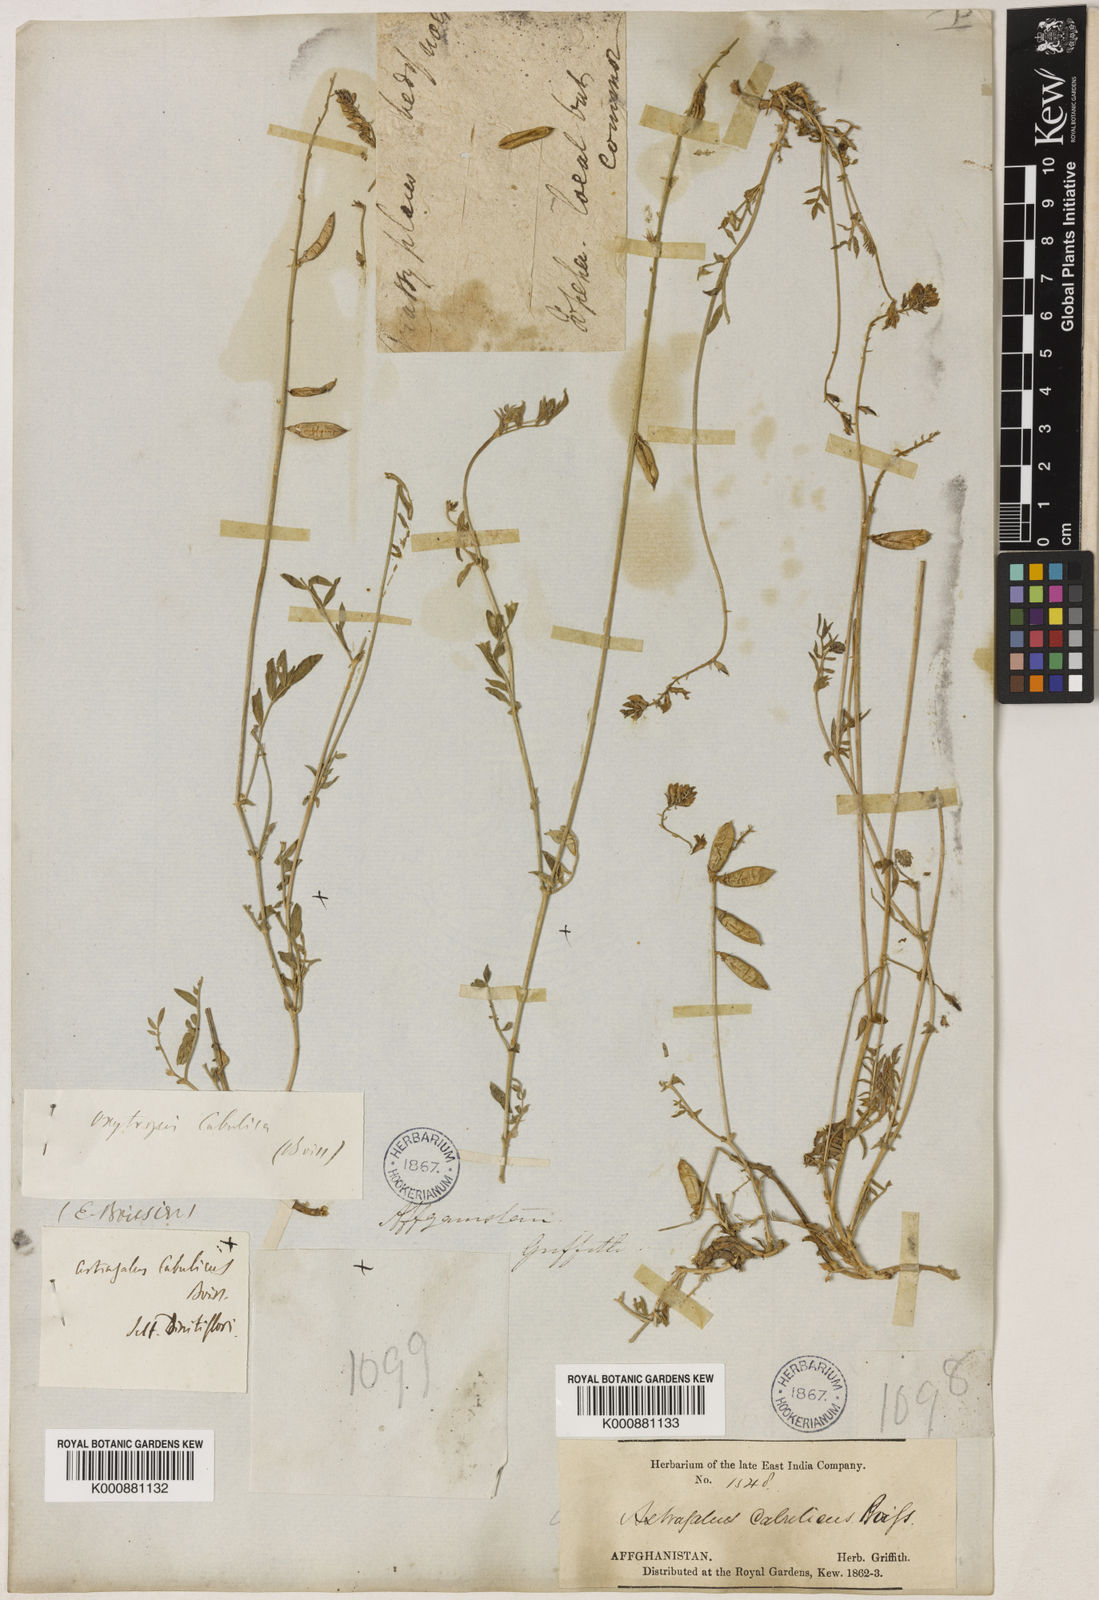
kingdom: Plantae
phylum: Tracheophyta
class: Magnoliopsida
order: Fabales
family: Fabaceae
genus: Oxytropis
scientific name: Oxytropis cabulica
